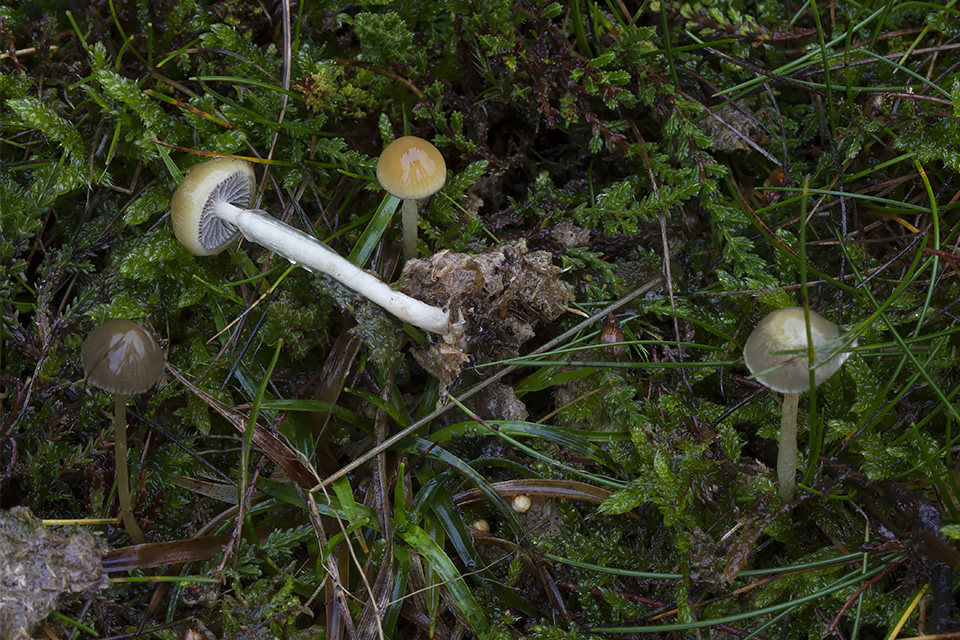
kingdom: Fungi
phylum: Basidiomycota
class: Agaricomycetes
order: Agaricales
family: Strophariaceae
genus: Protostropharia
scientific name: Protostropharia semiglobata
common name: halvkugleformet bredblad
